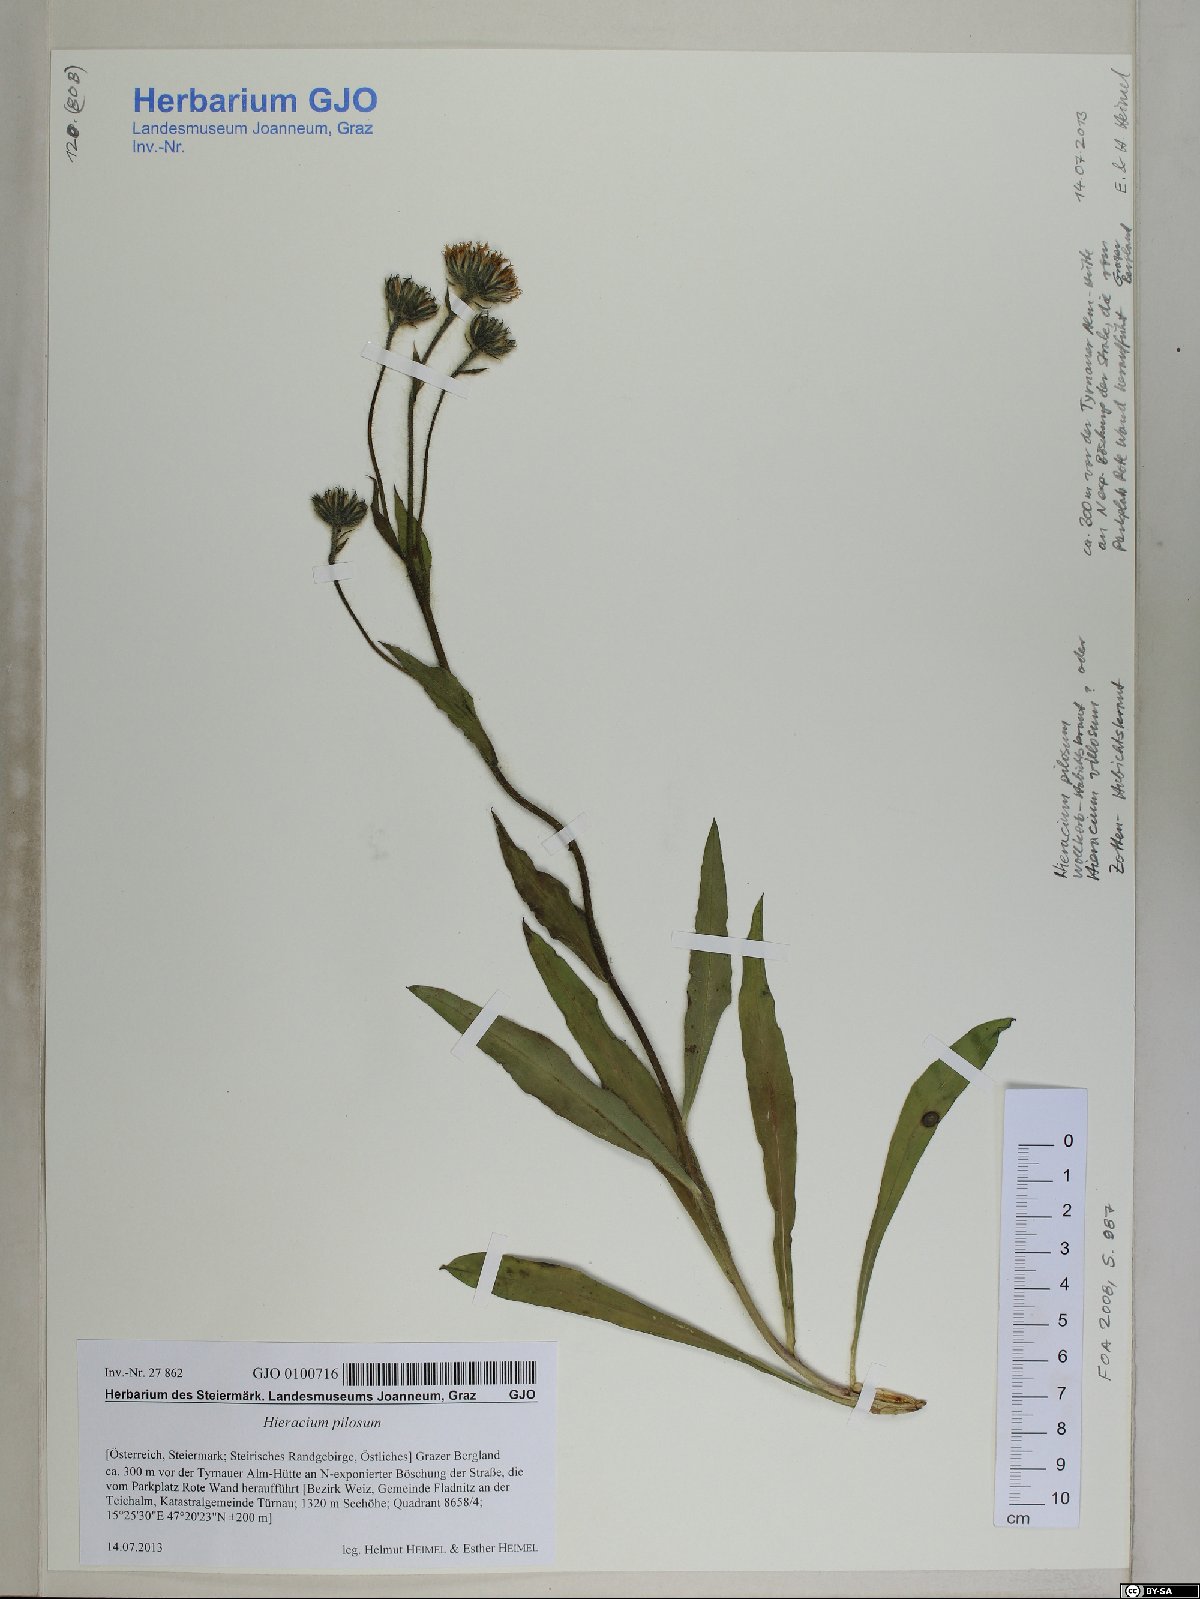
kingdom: Plantae
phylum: Tracheophyta
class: Magnoliopsida
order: Asterales
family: Asteraceae
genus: Hieracium
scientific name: Hieracium pilosum
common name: Fimbriate-pitted hawkweed
